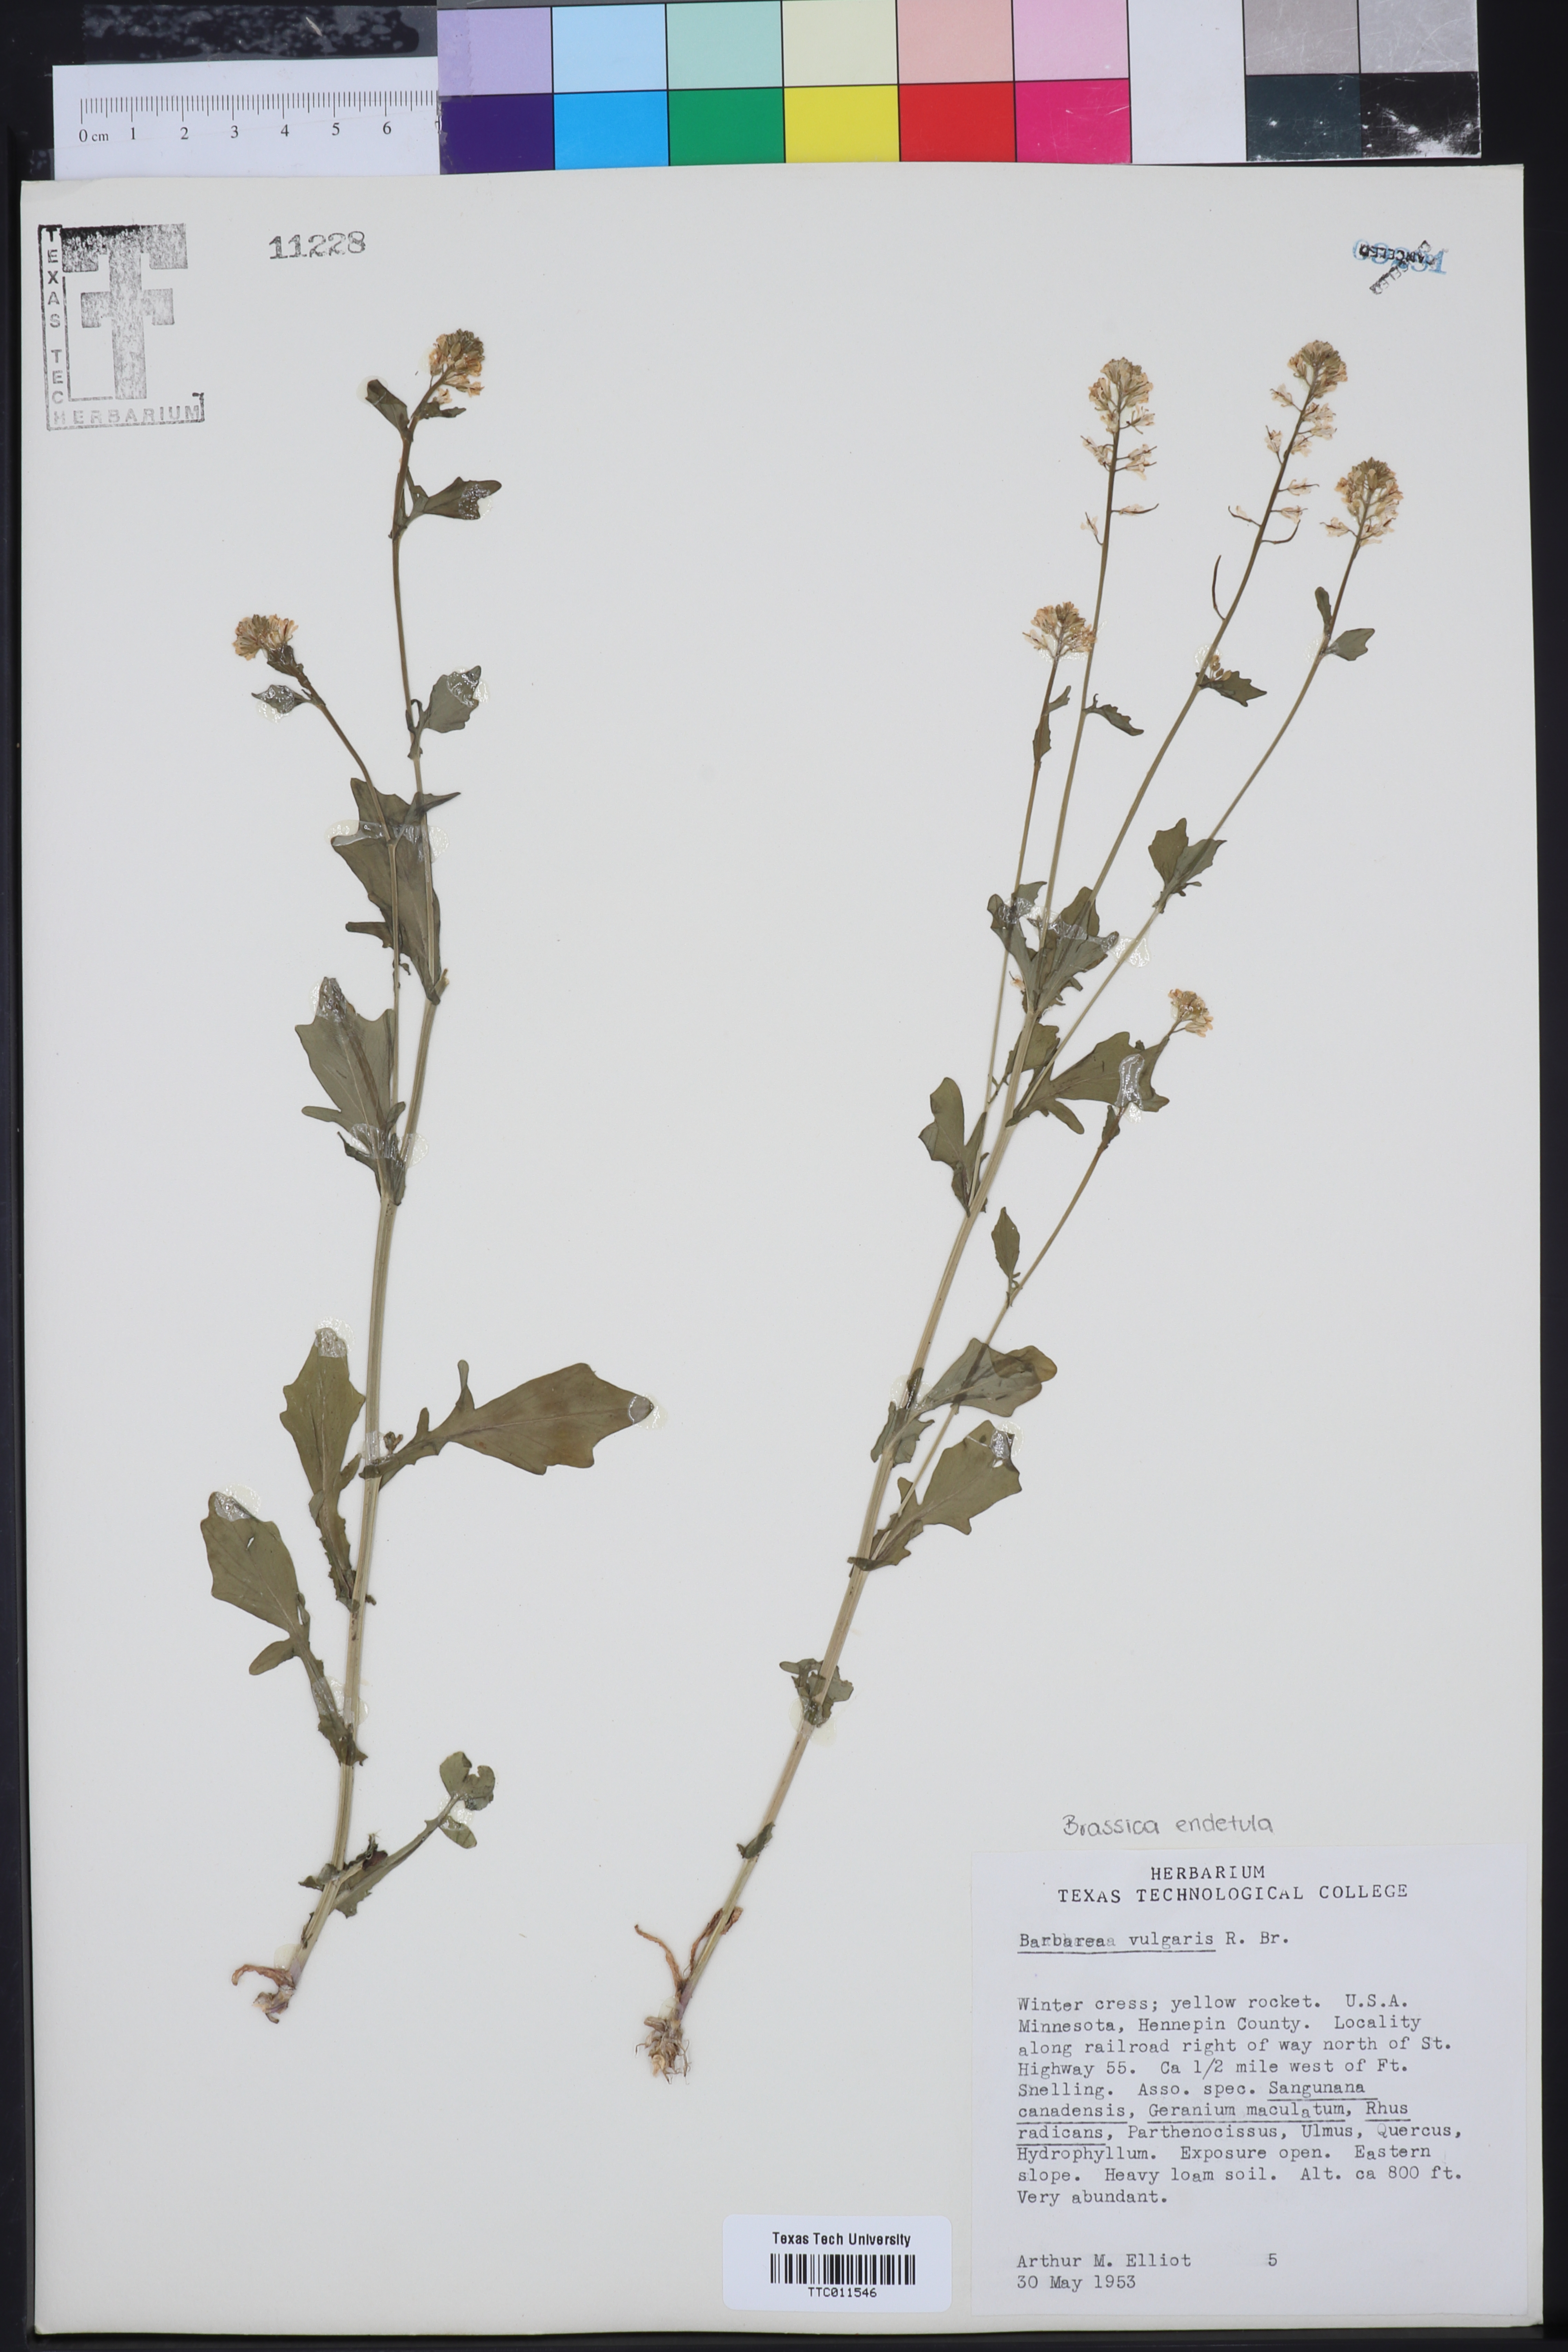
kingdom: Plantae
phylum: Tracheophyta
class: Magnoliopsida
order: Brassicales
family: Brassicaceae
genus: Brassica
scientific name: Brassica
